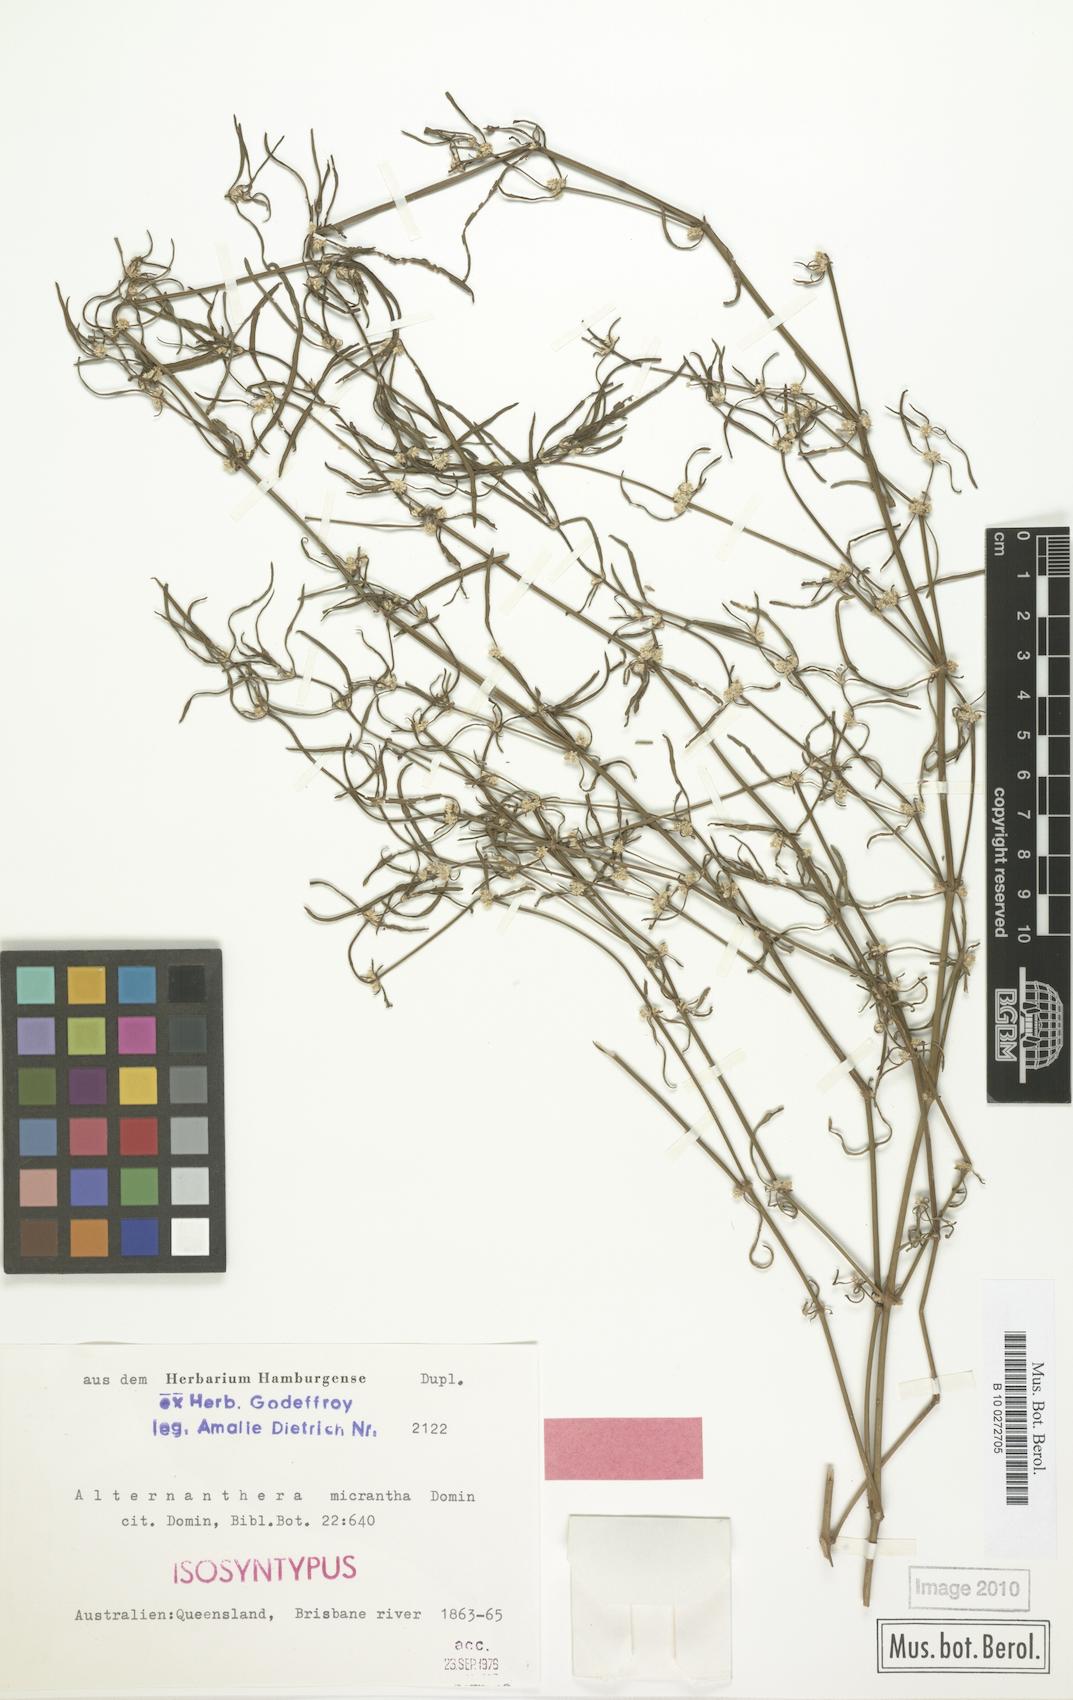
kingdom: Plantae
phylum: Tracheophyta
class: Magnoliopsida
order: Caryophyllales
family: Amaranthaceae
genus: Alternanthera
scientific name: Alternanthera micrantha
